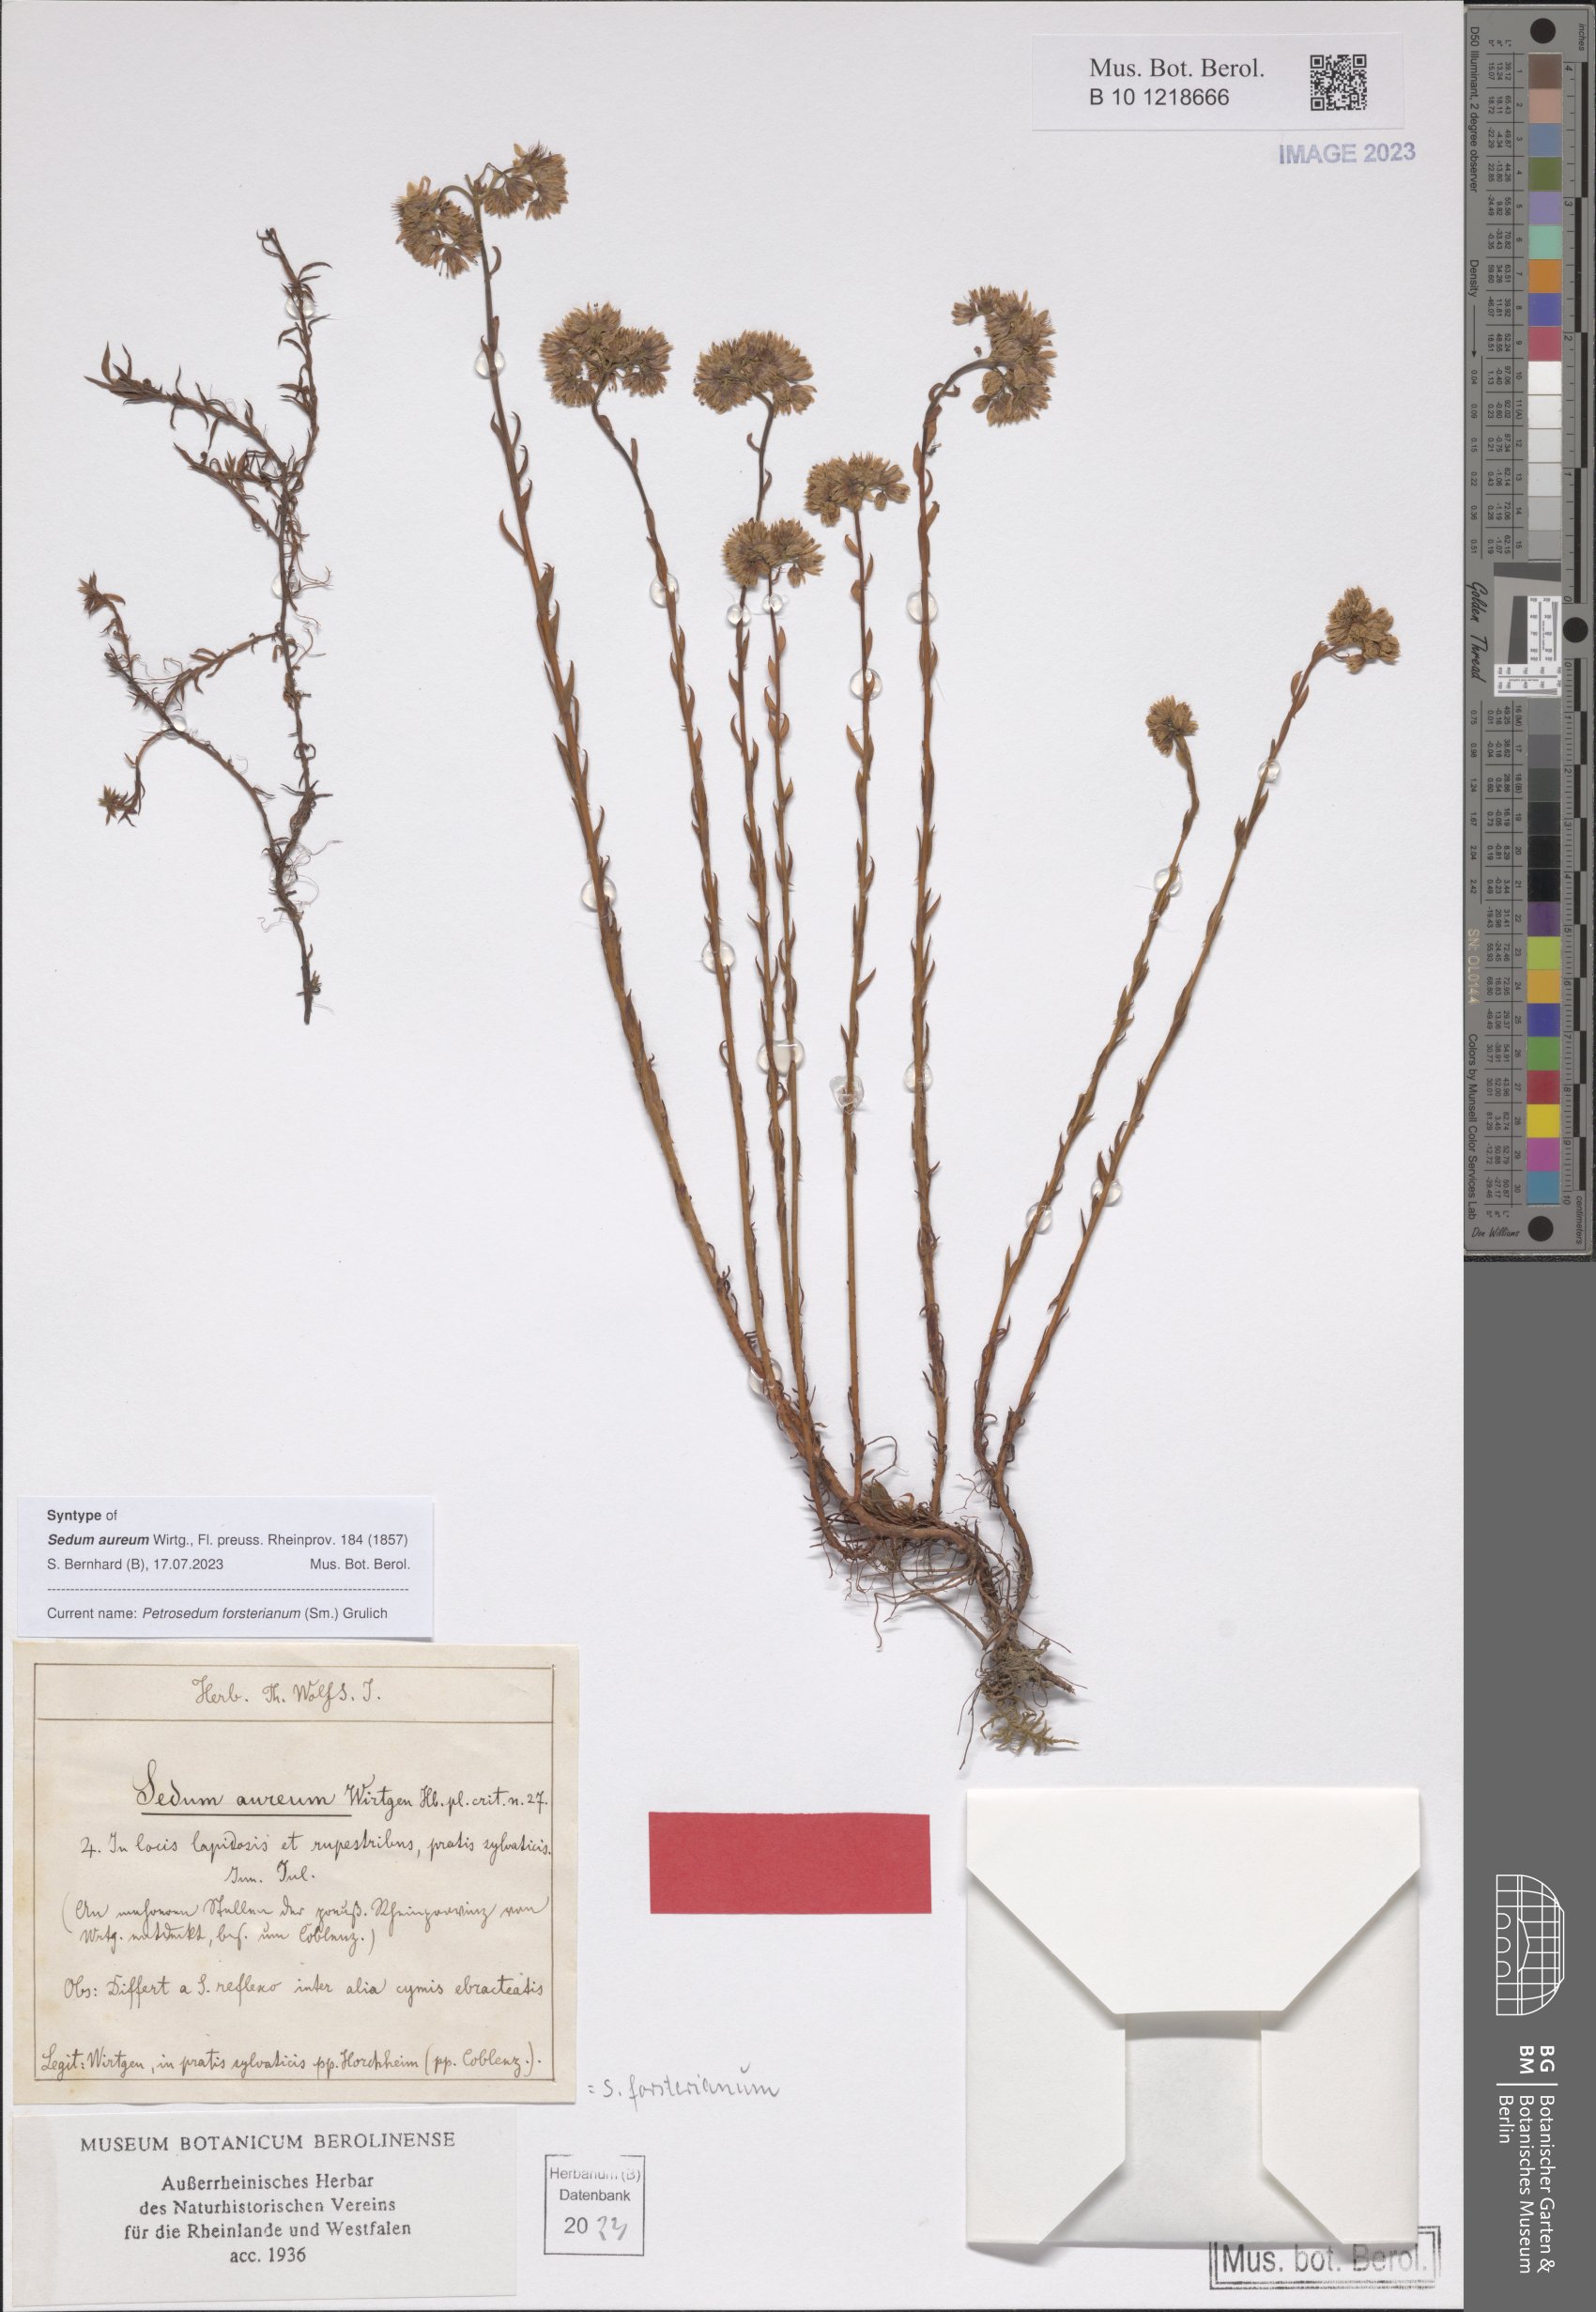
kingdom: Plantae
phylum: Tracheophyta
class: Magnoliopsida
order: Saxifragales
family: Crassulaceae
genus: Petrosedum
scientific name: Petrosedum forsterianum
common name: Forster's stonecrop
